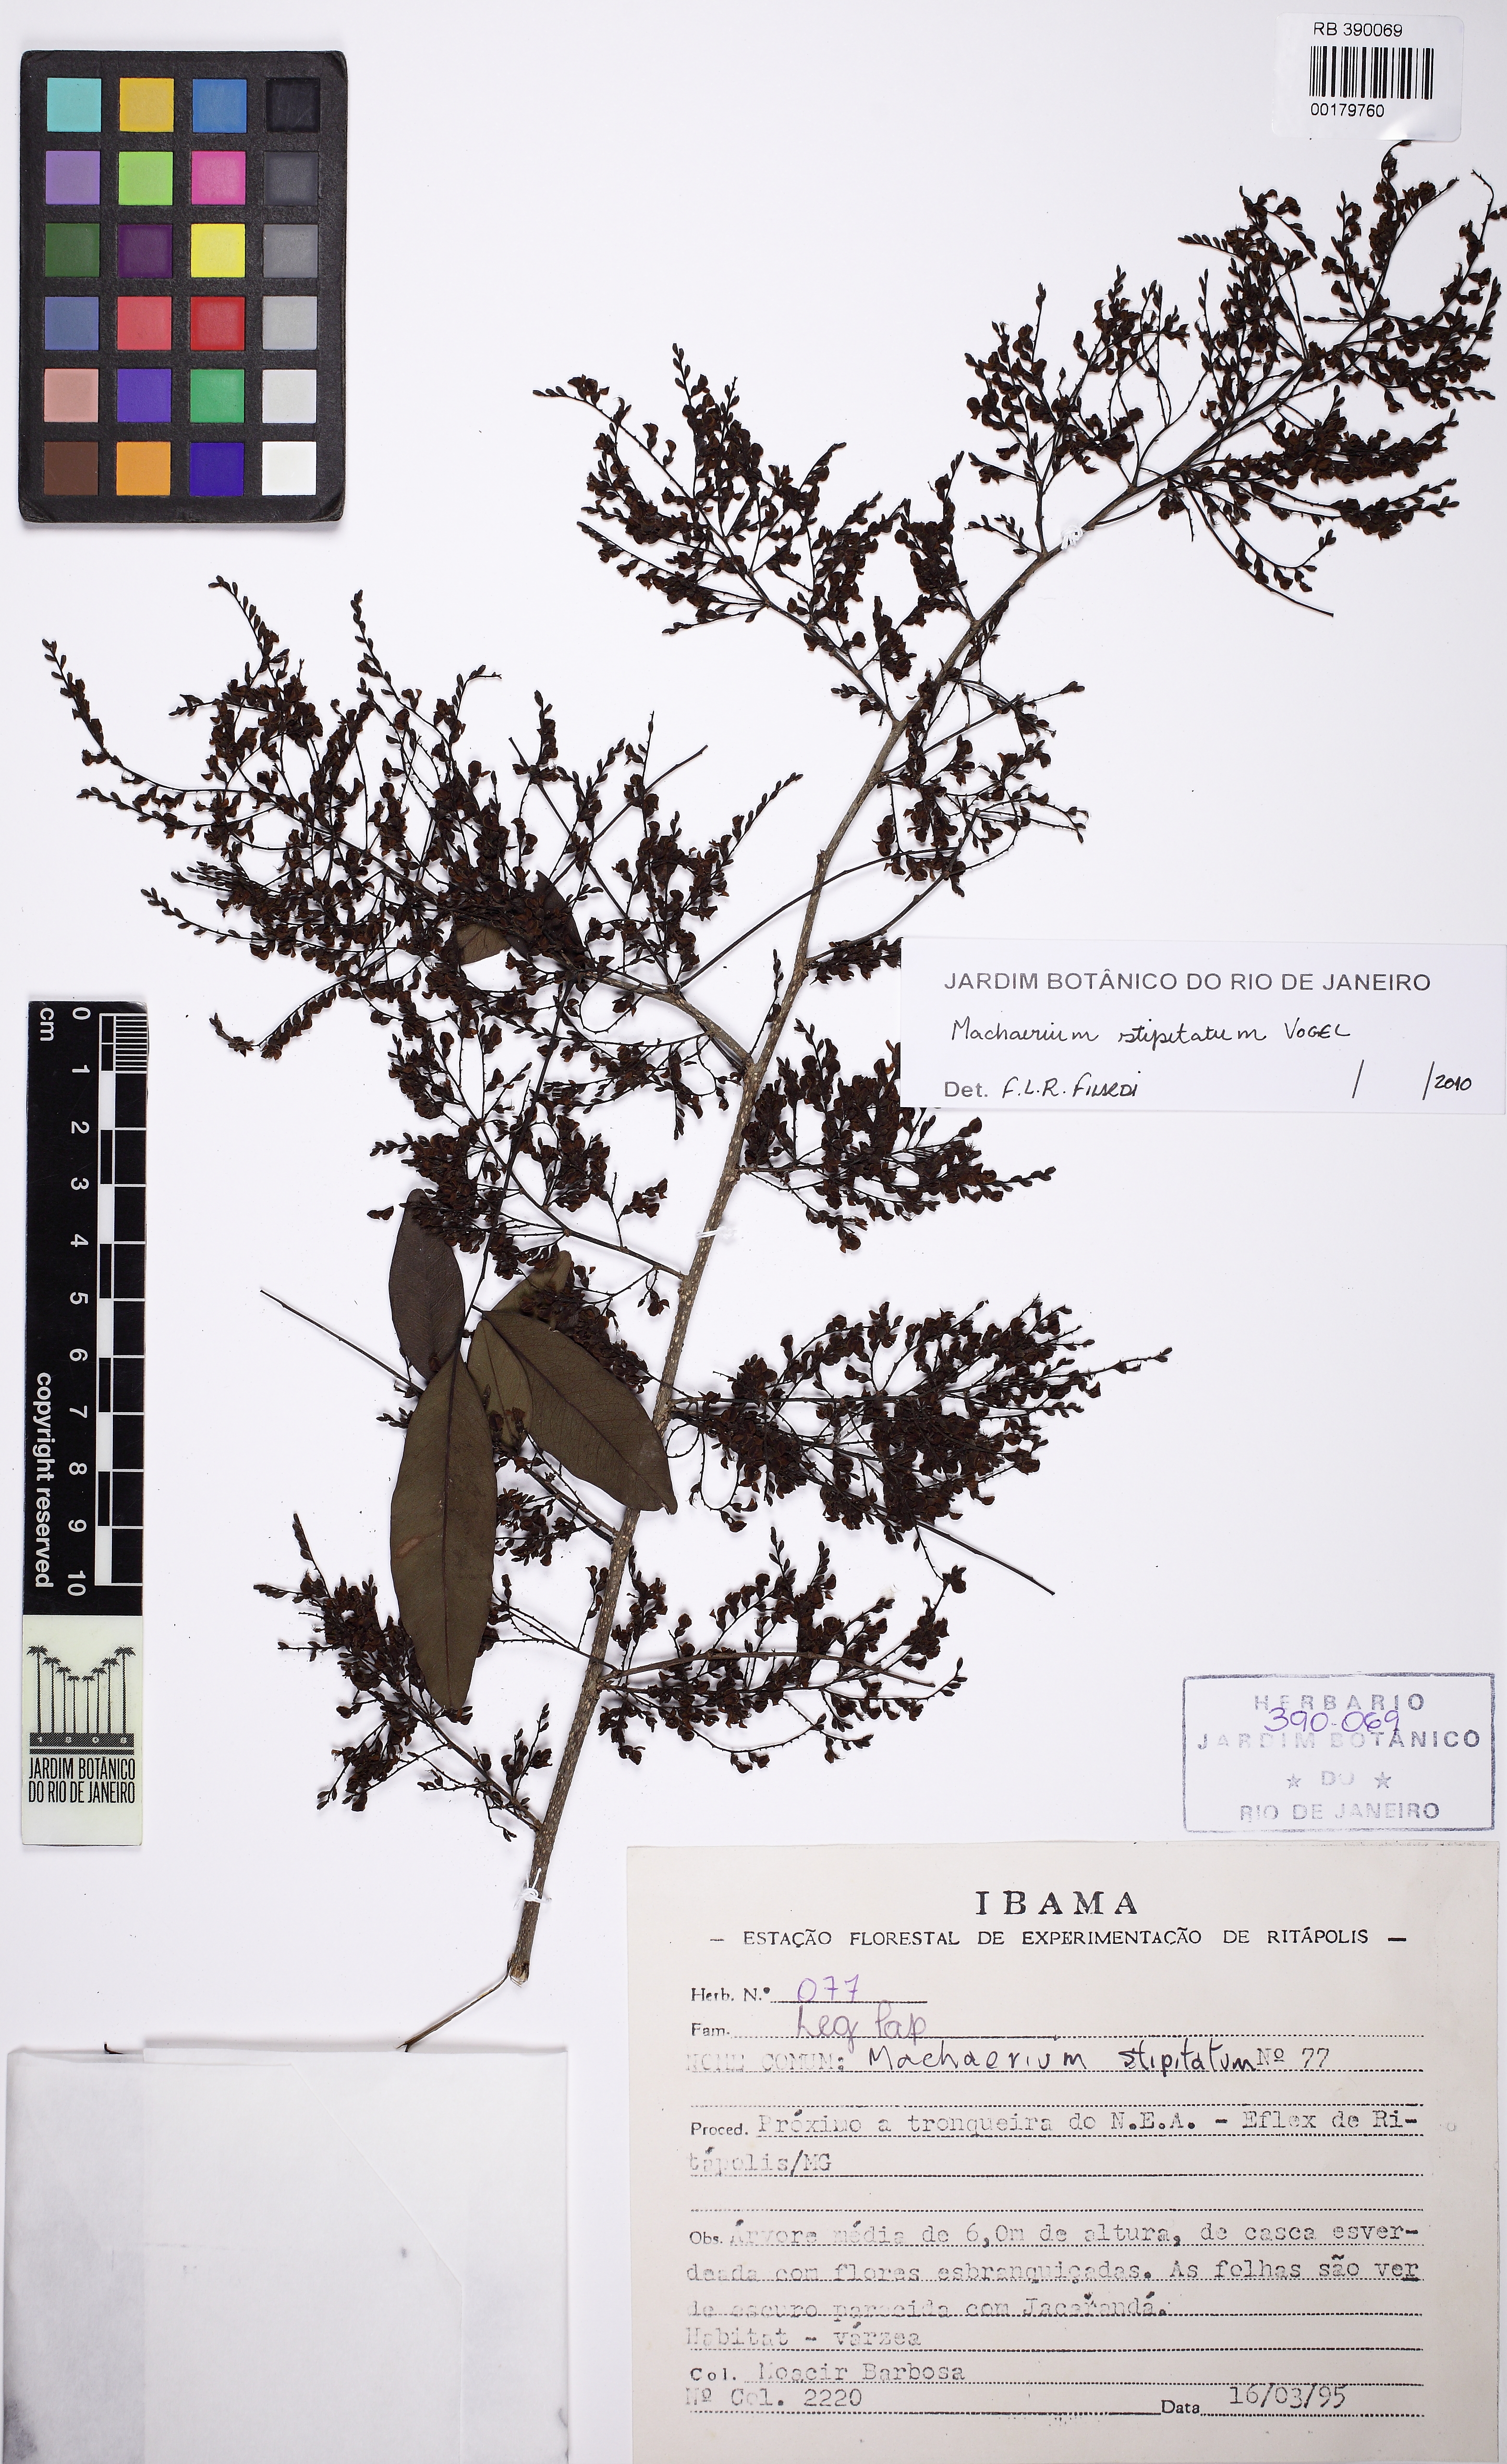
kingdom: Plantae
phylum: Tracheophyta
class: Magnoliopsida
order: Fabales
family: Fabaceae
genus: Machaerium
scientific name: Machaerium stipitatum
